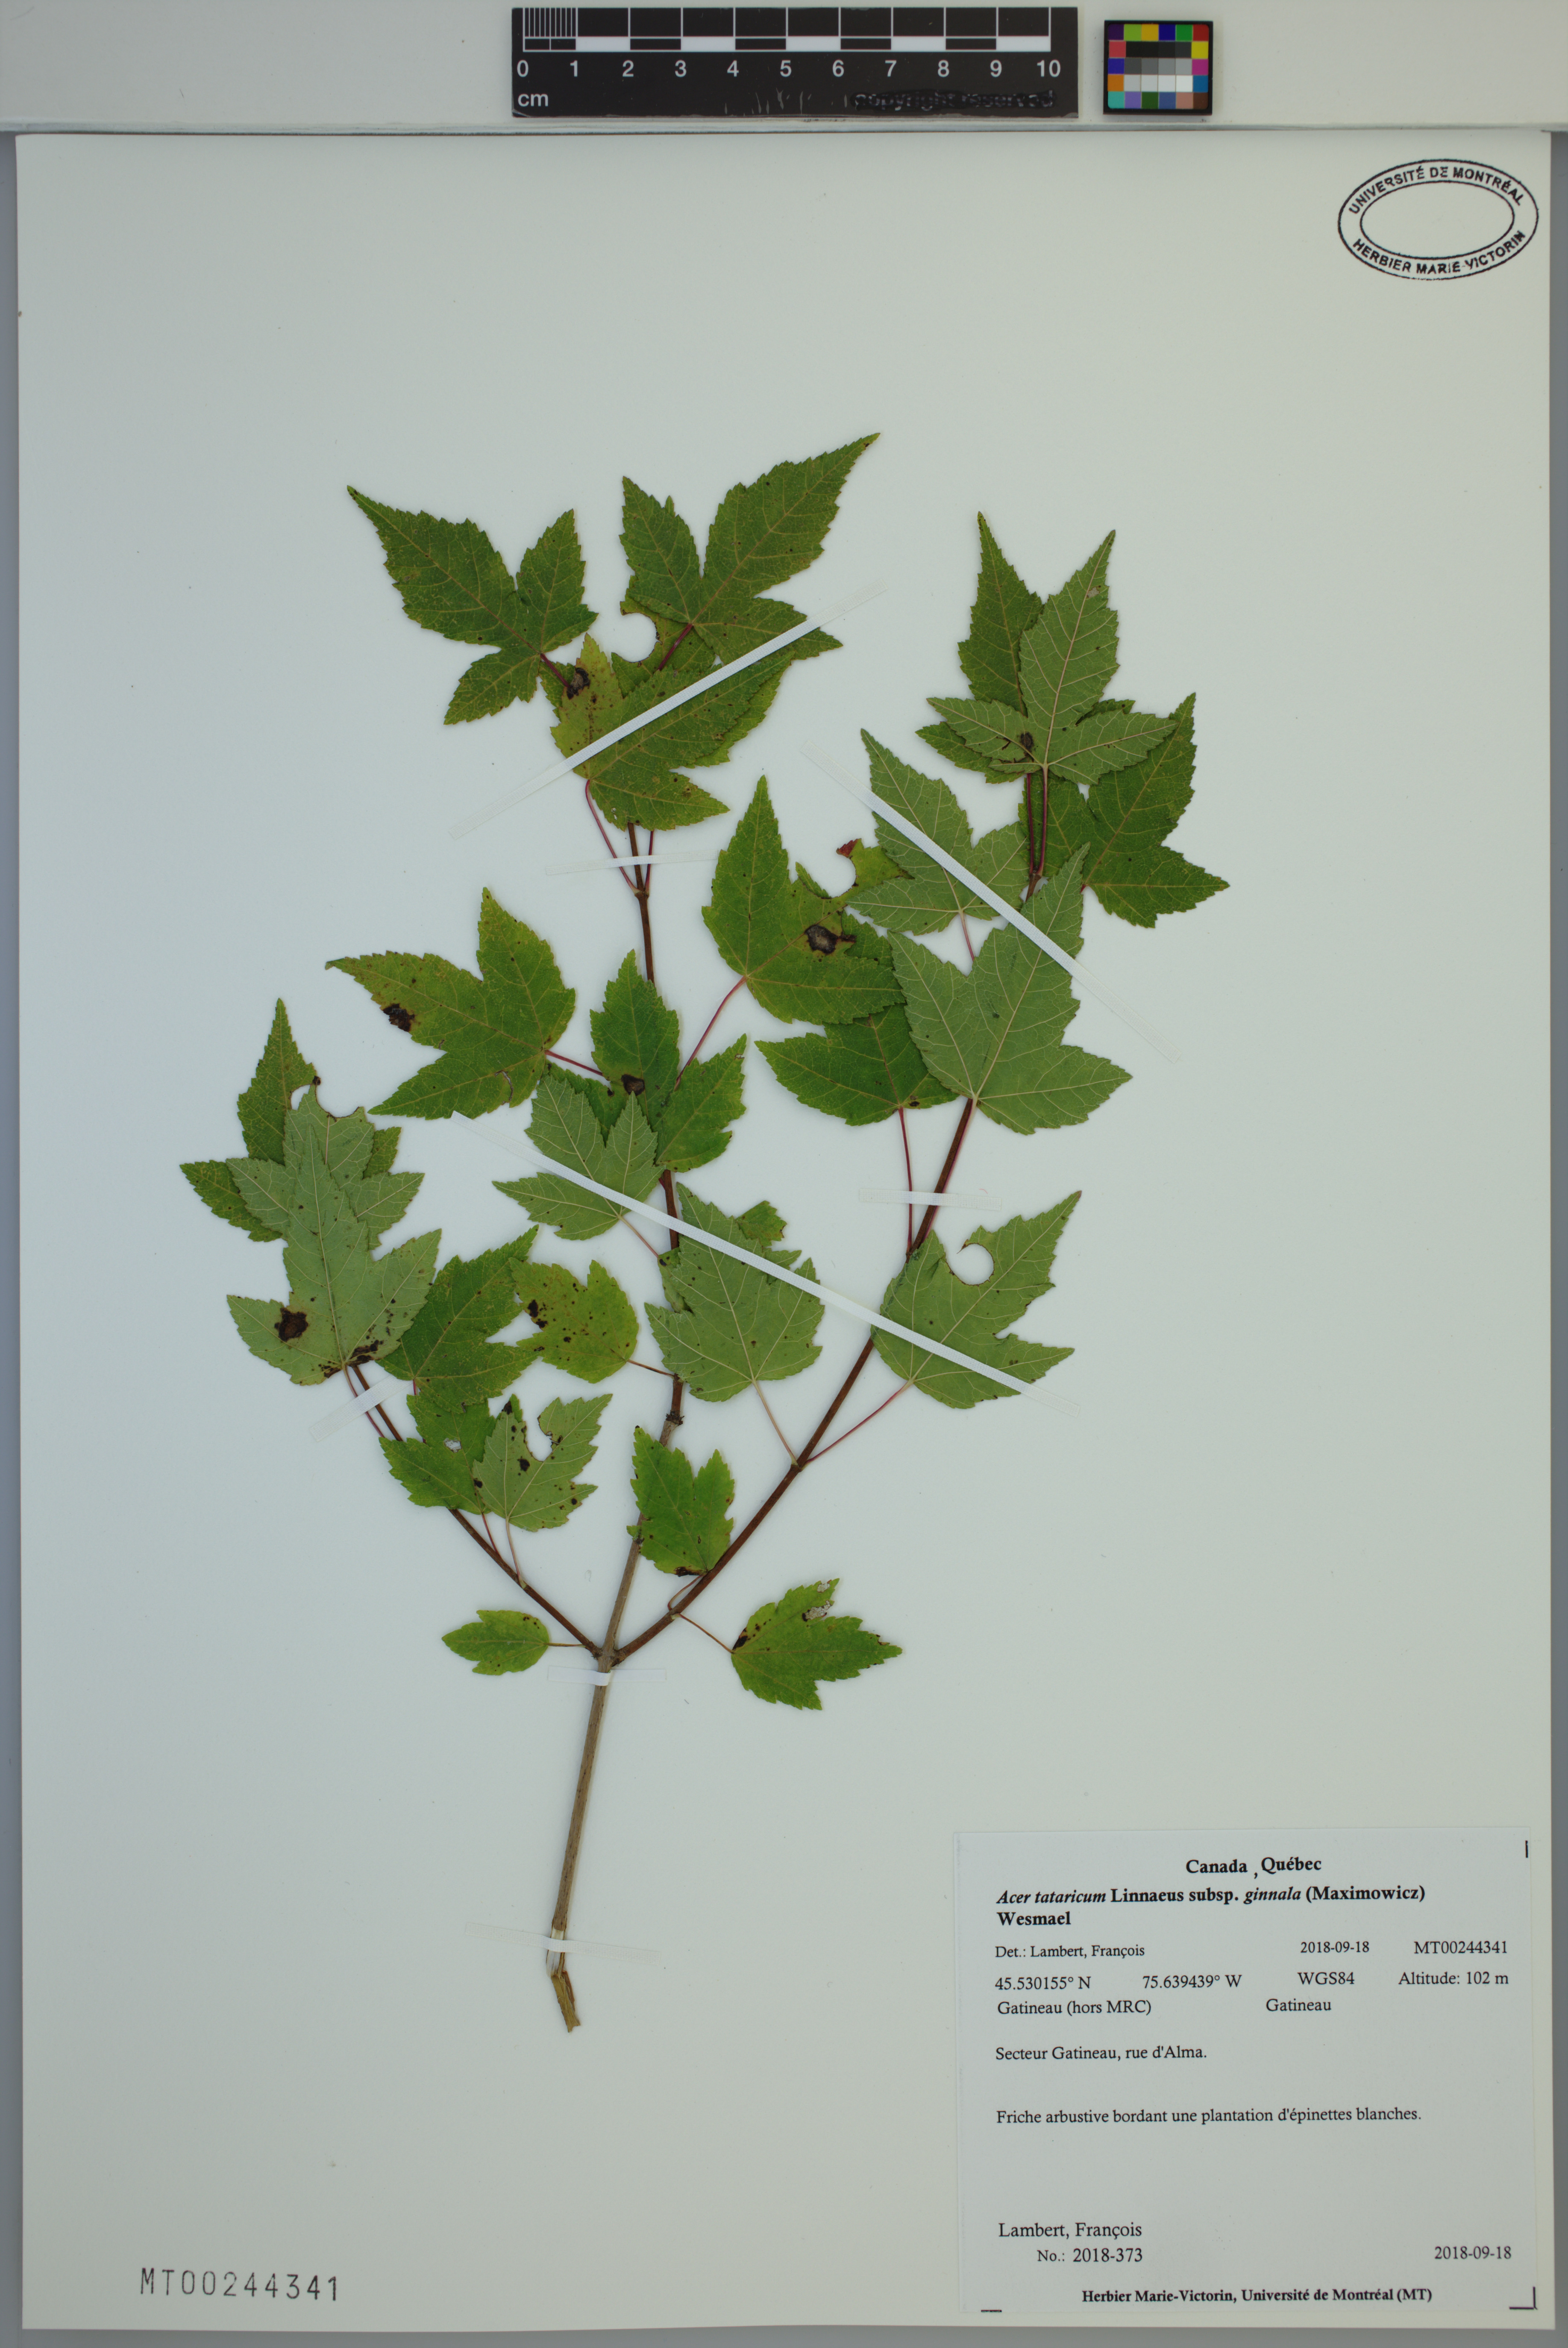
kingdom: Plantae
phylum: Tracheophyta
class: Magnoliopsida
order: Sapindales
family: Sapindaceae
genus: Acer
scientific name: Acer tataricum
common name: Tartar maple
